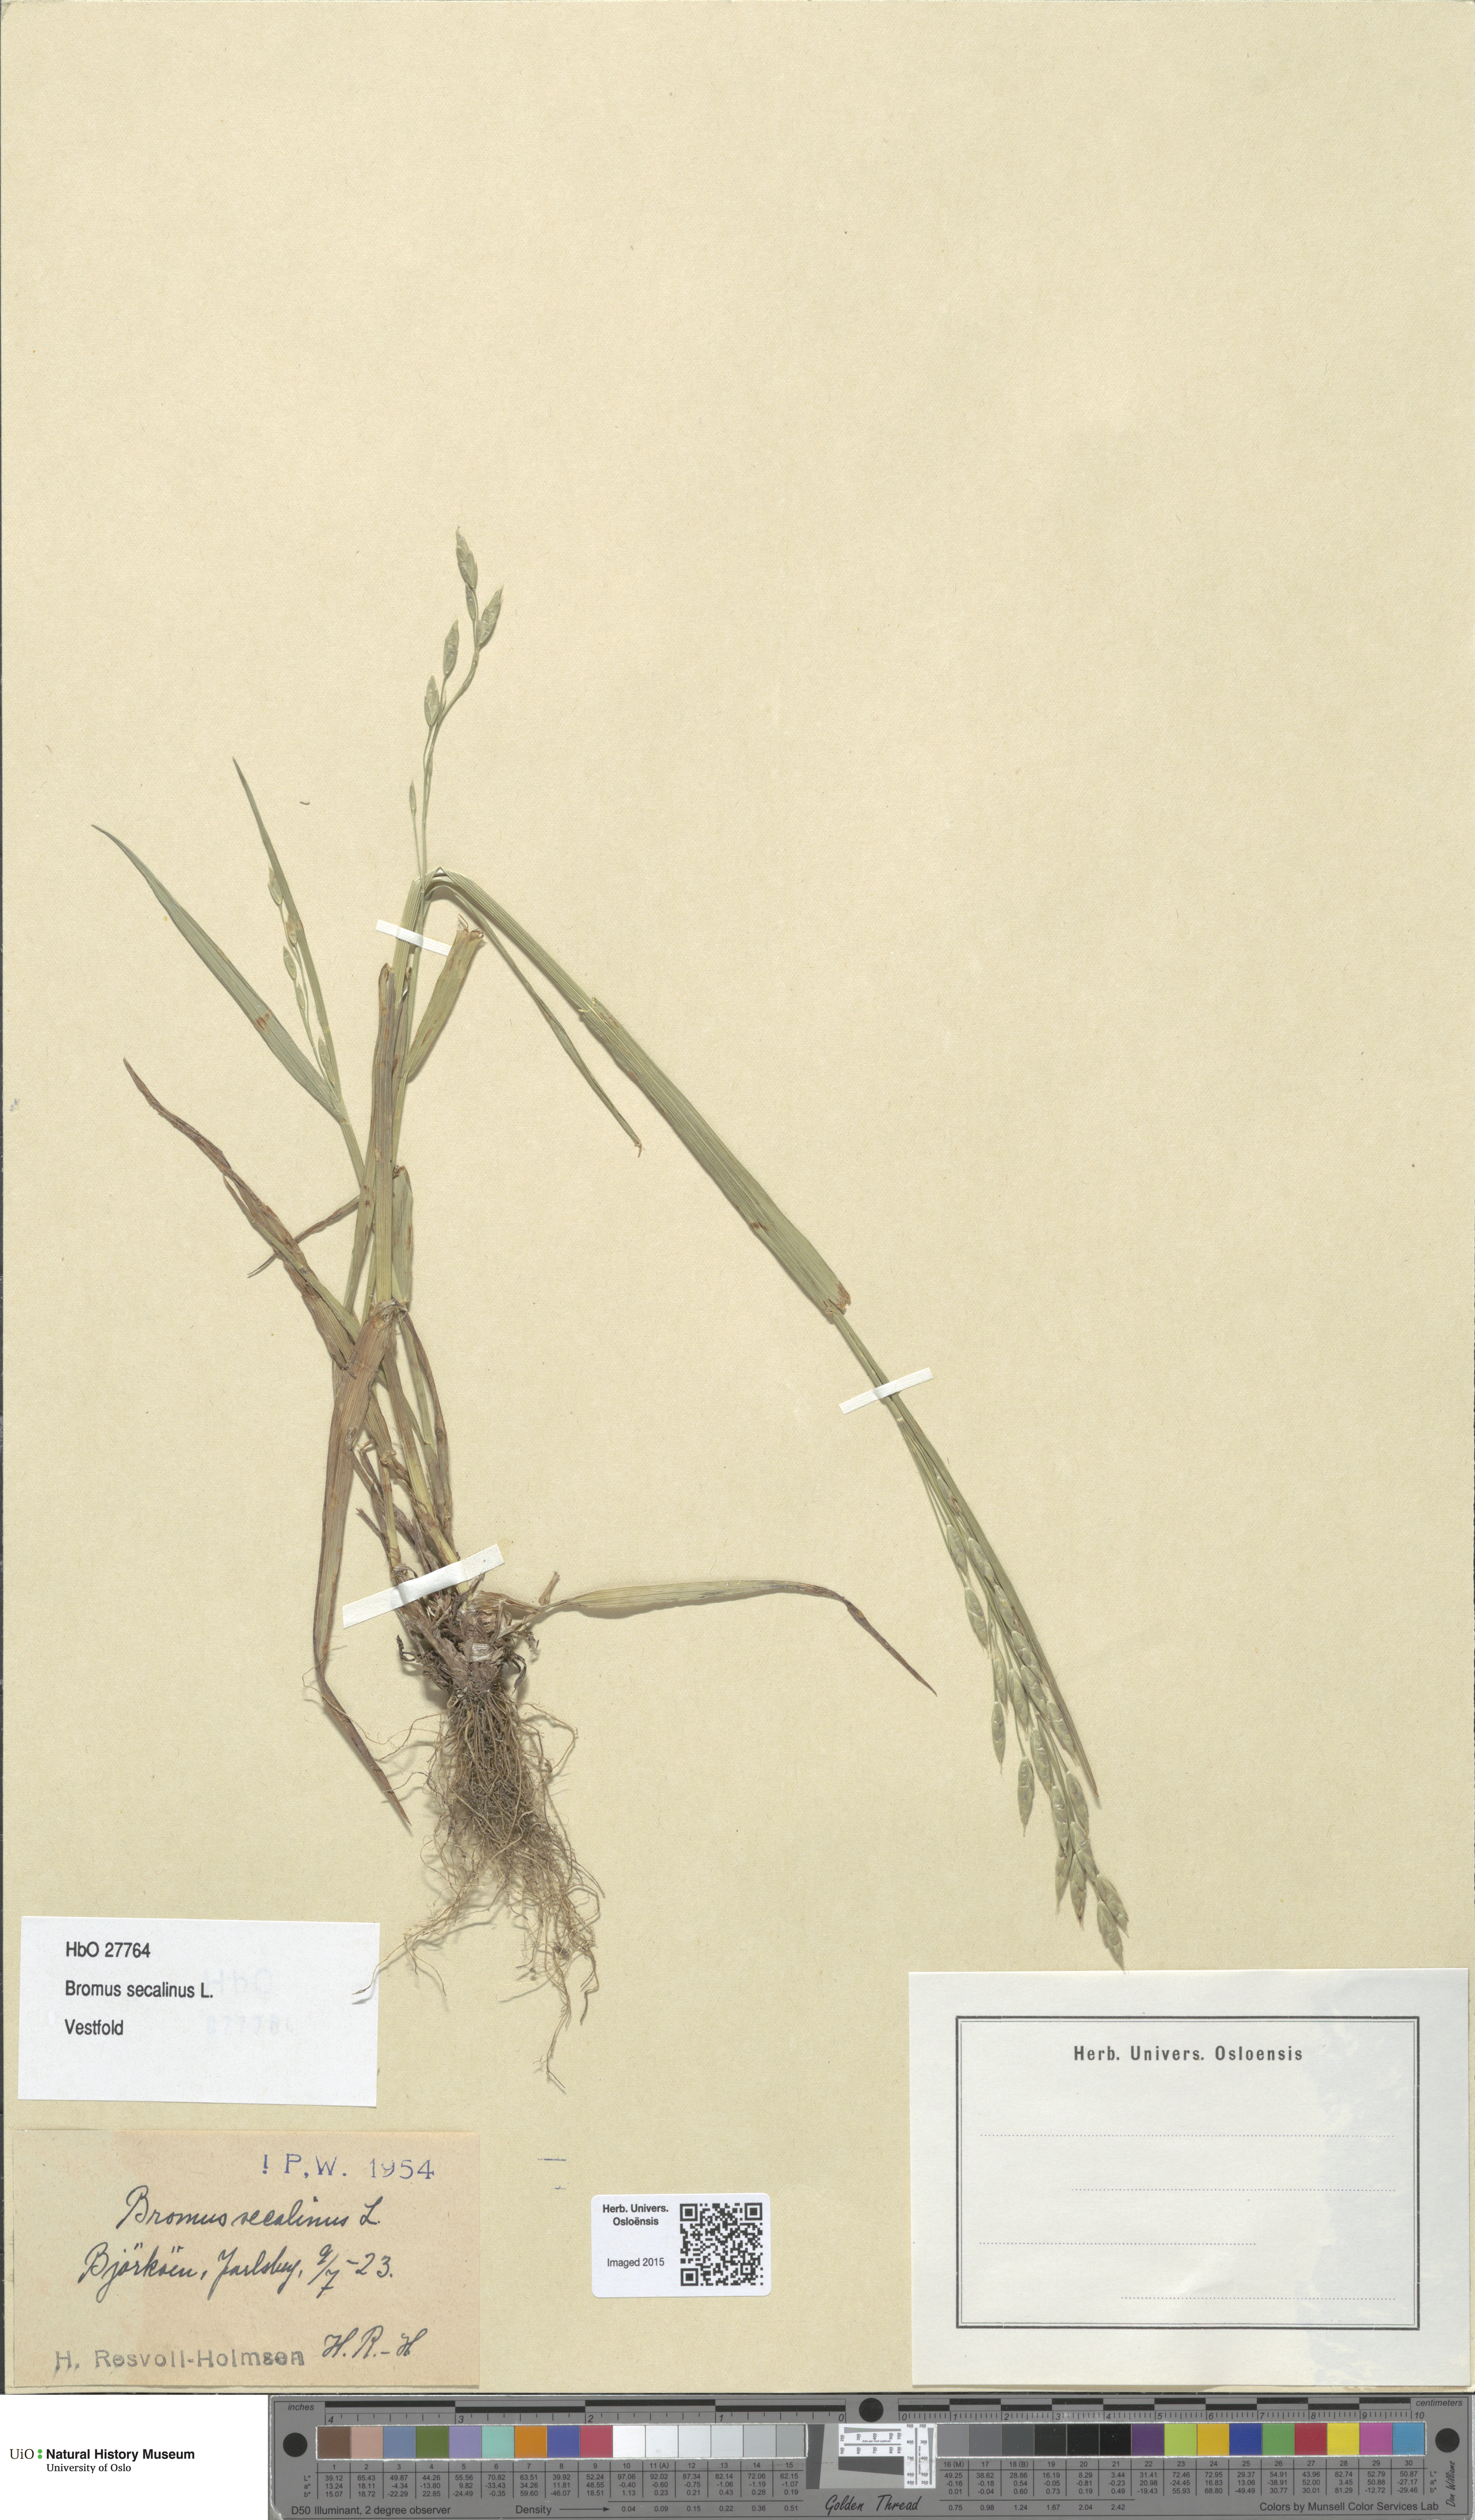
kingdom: Plantae
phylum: Tracheophyta
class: Liliopsida
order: Poales
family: Poaceae
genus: Bromus
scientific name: Bromus secalinus
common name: Rye brome
